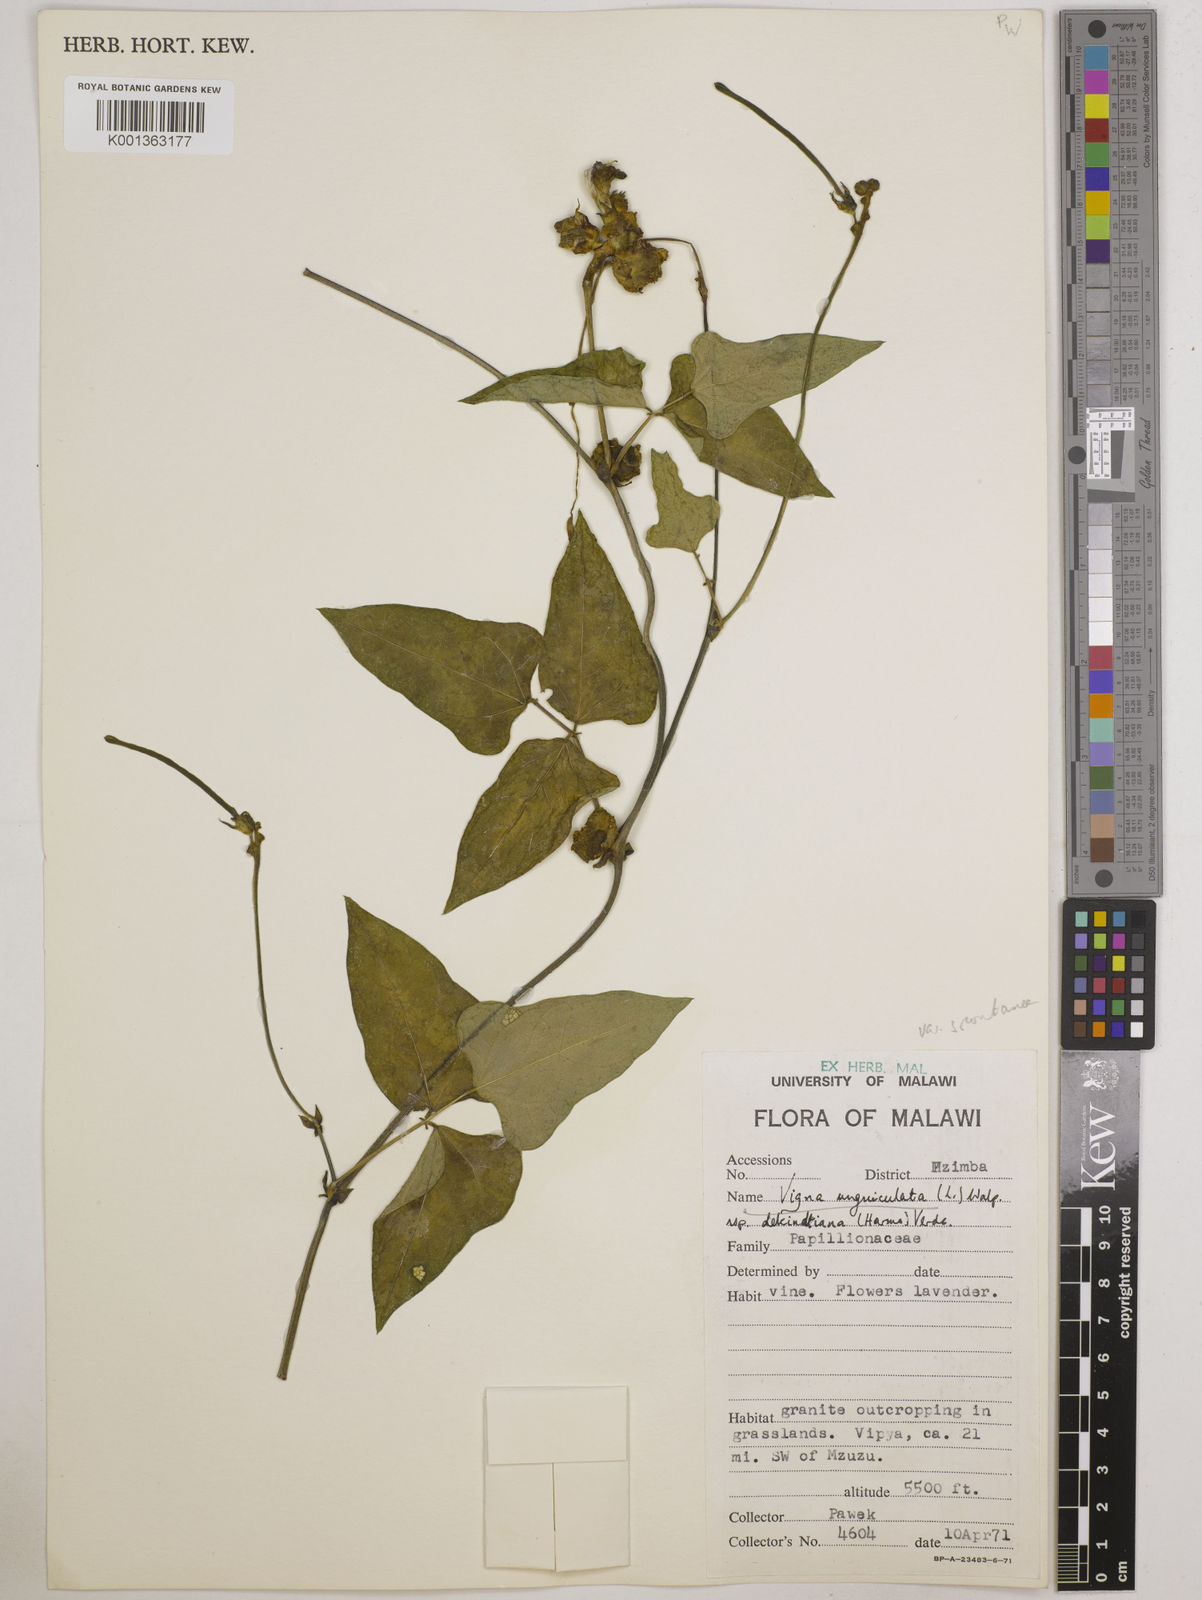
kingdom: Plantae
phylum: Tracheophyta
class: Magnoliopsida
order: Fabales
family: Fabaceae
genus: Vigna
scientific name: Vigna unguiculata
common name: Cowpea
